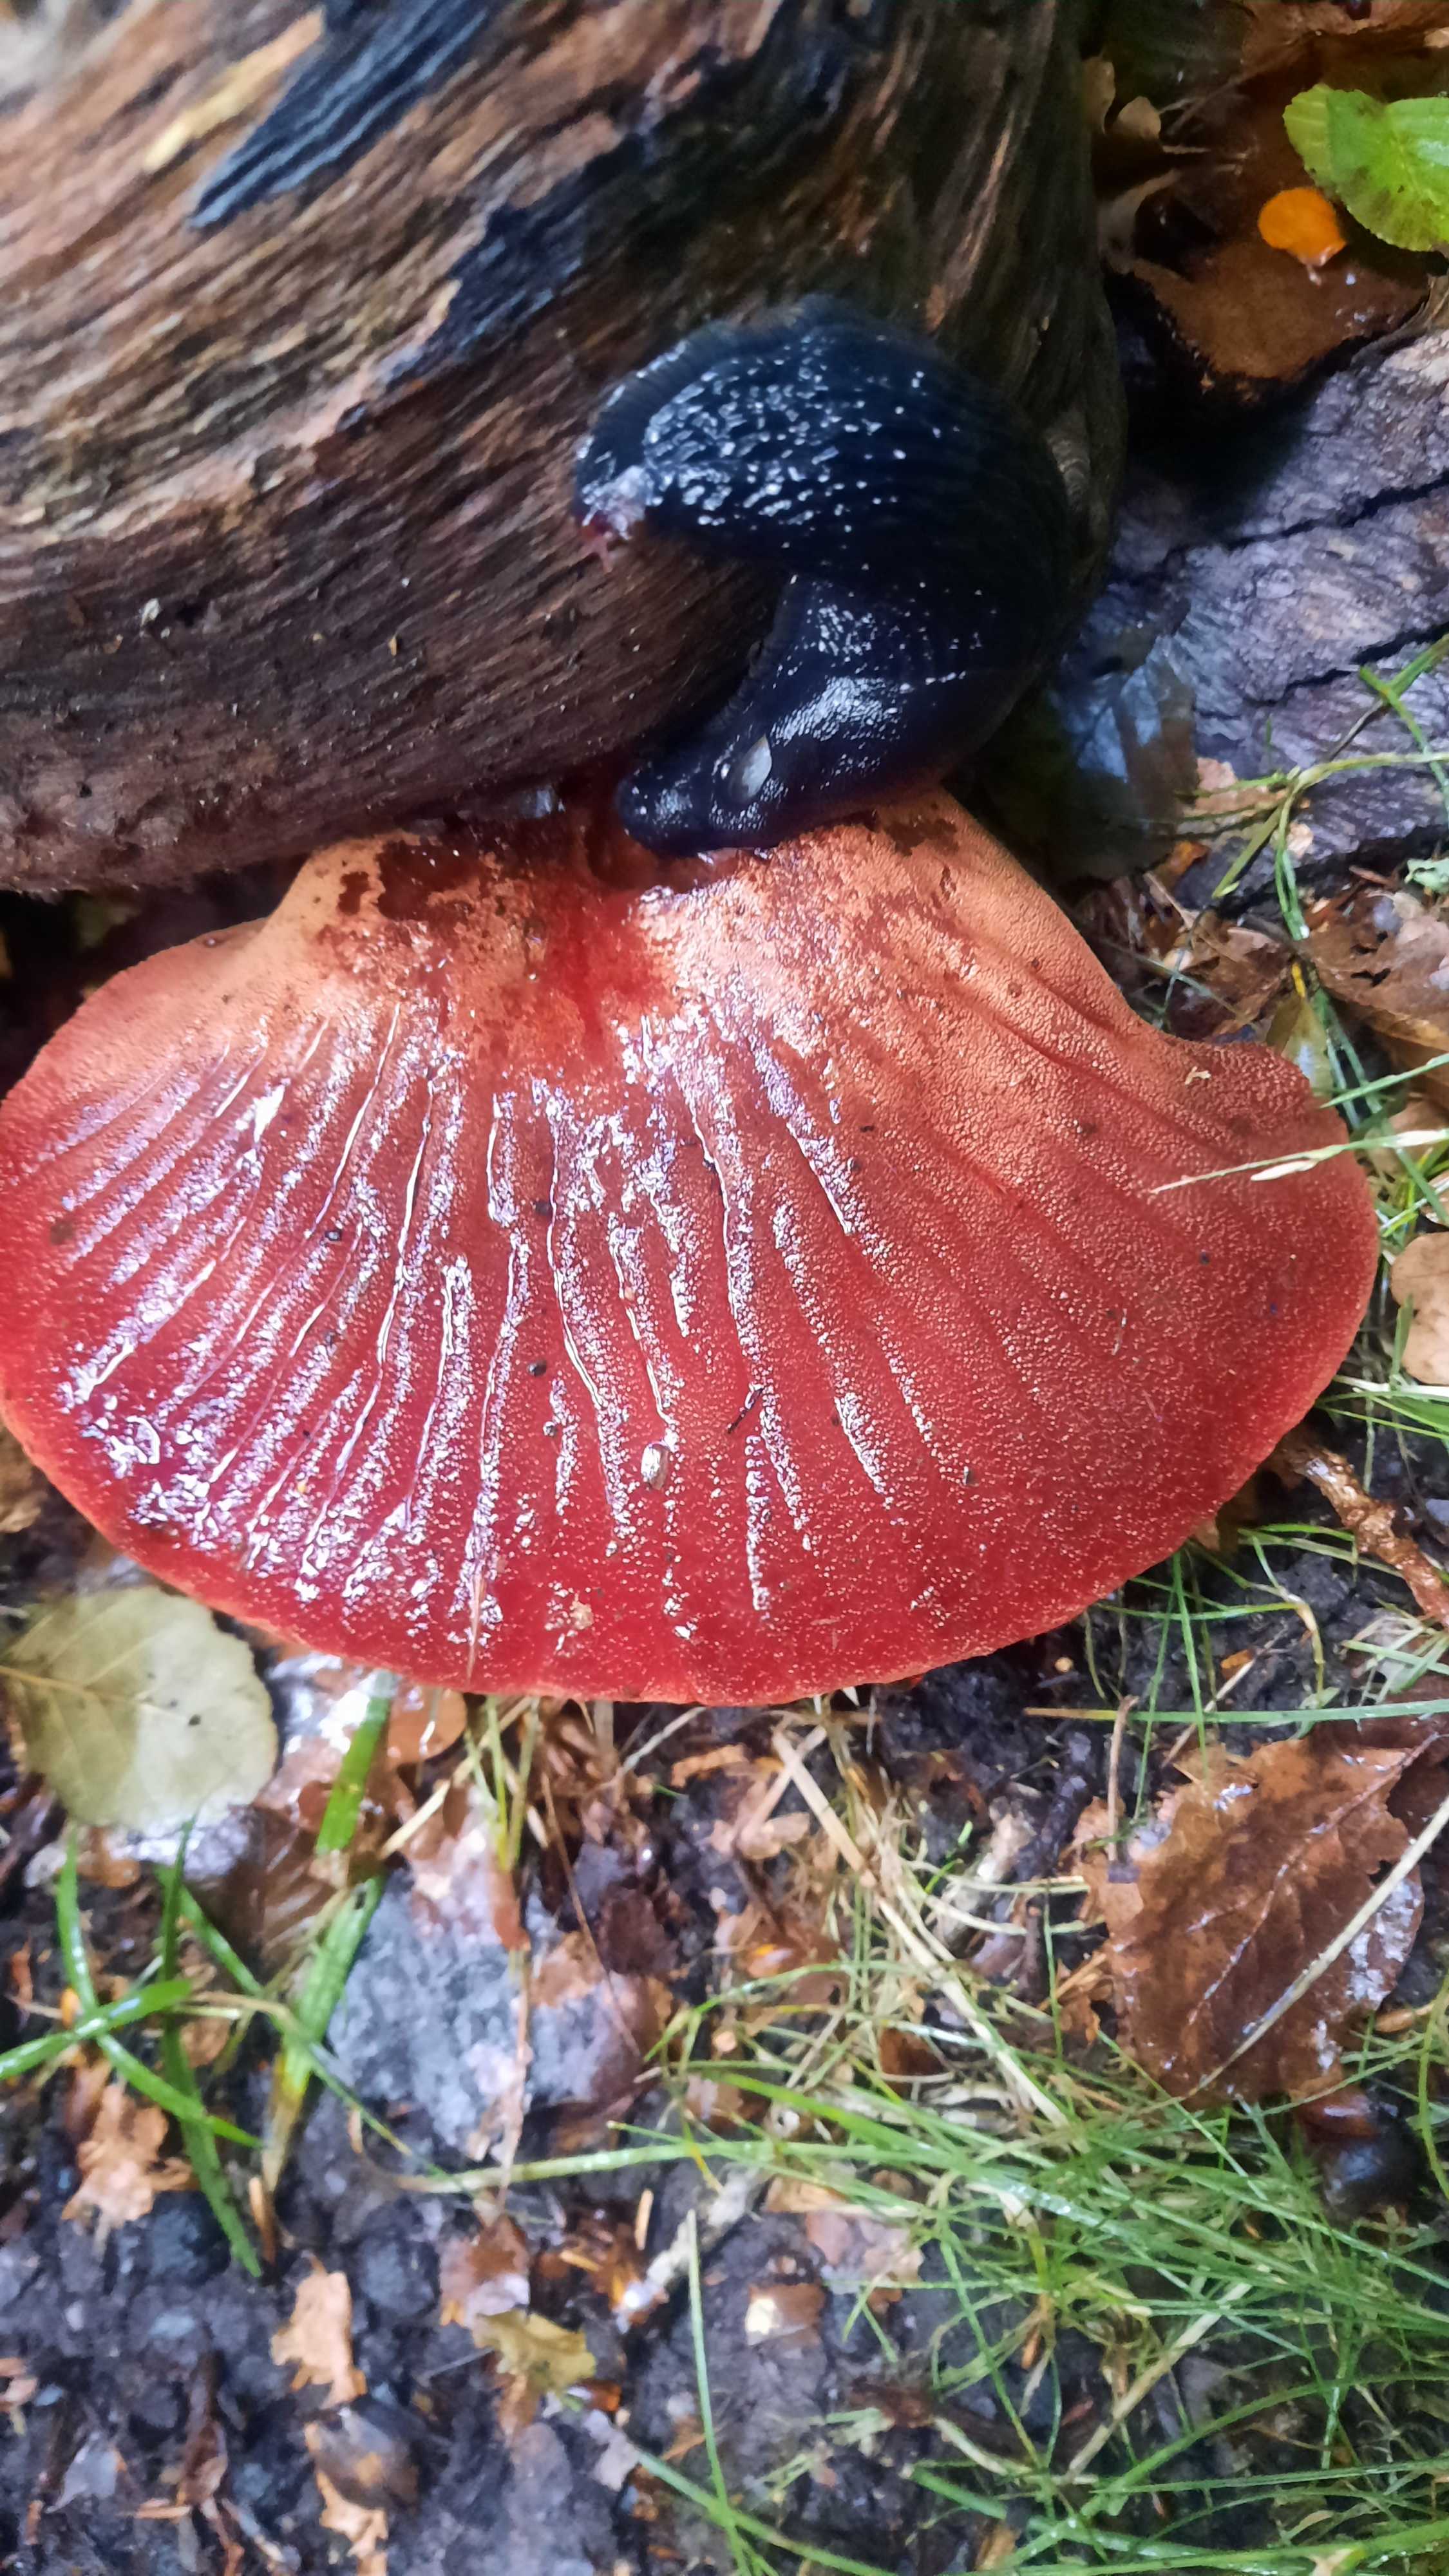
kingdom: Fungi
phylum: Basidiomycota
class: Agaricomycetes
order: Agaricales
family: Fistulinaceae
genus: Fistulina
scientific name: Fistulina hepatica
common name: oksetunge
